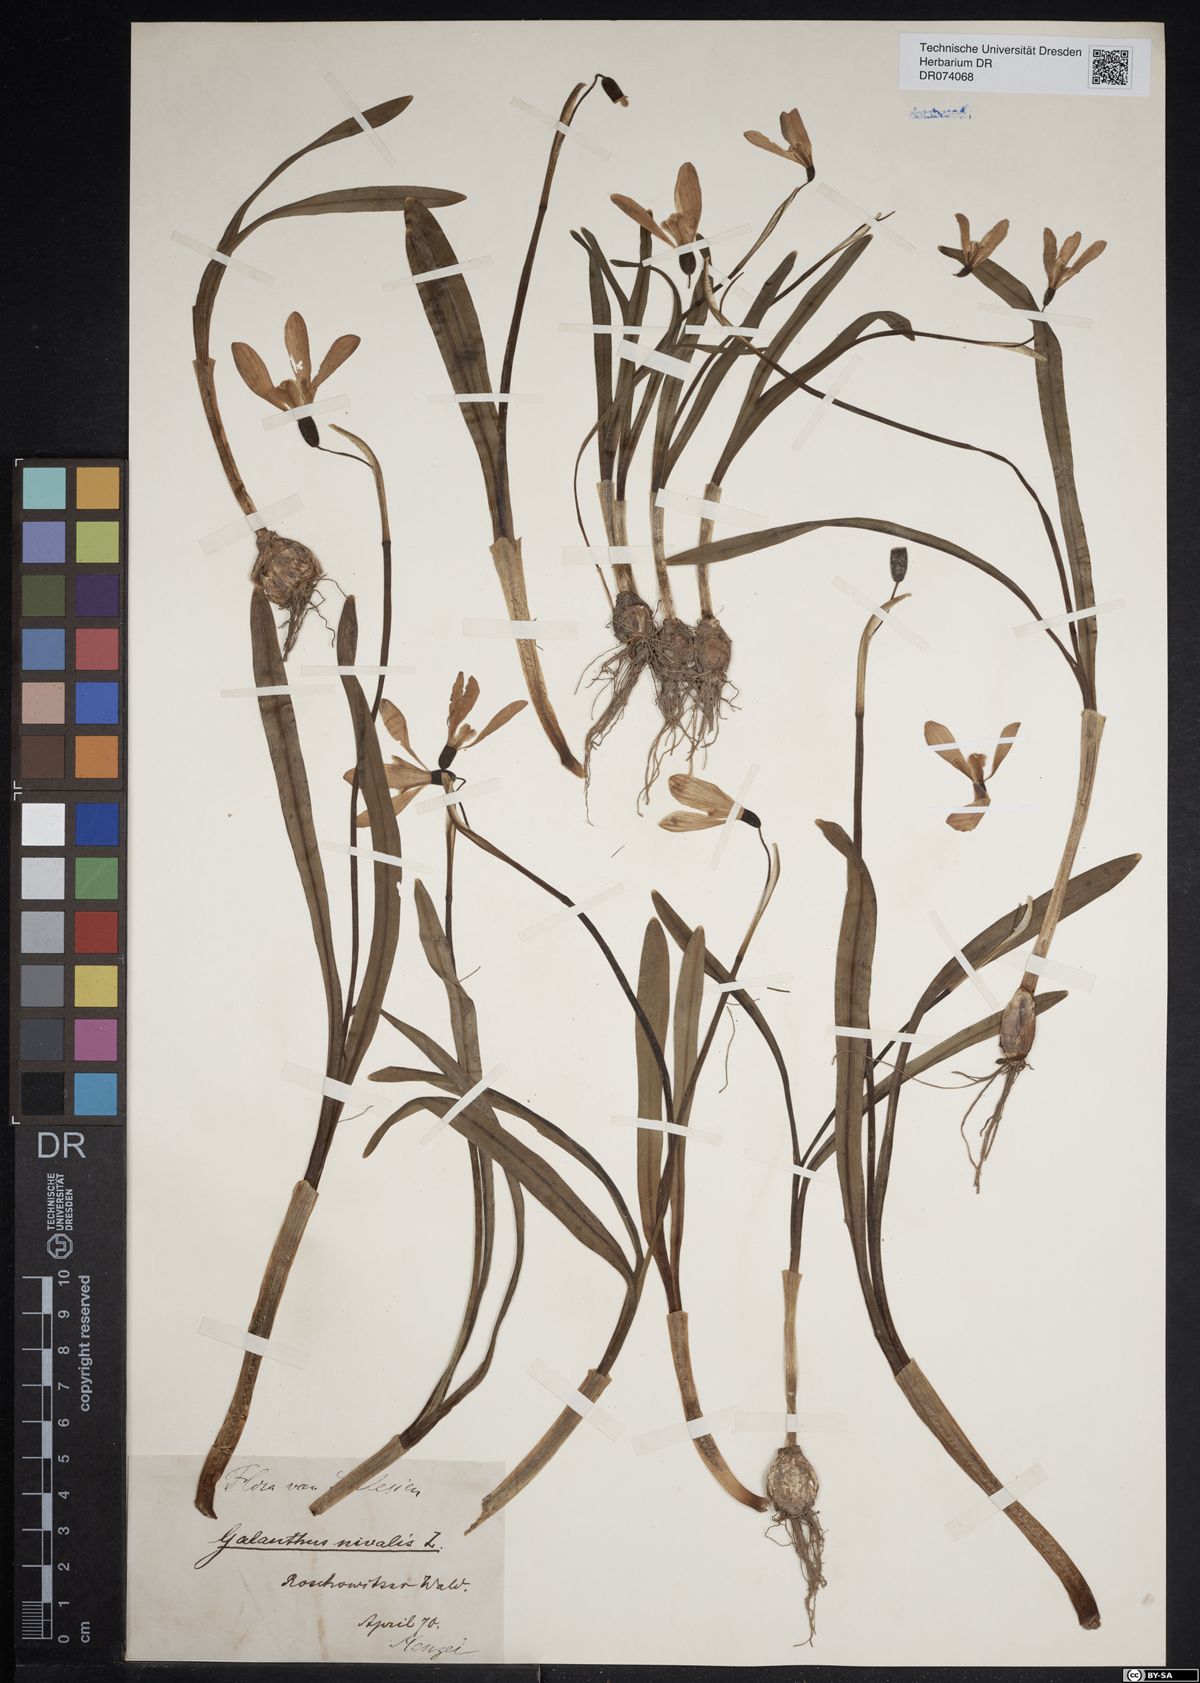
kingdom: Plantae
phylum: Tracheophyta
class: Liliopsida
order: Asparagales
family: Amaryllidaceae
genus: Galanthus
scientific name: Galanthus nivalis
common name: Snowdrop
